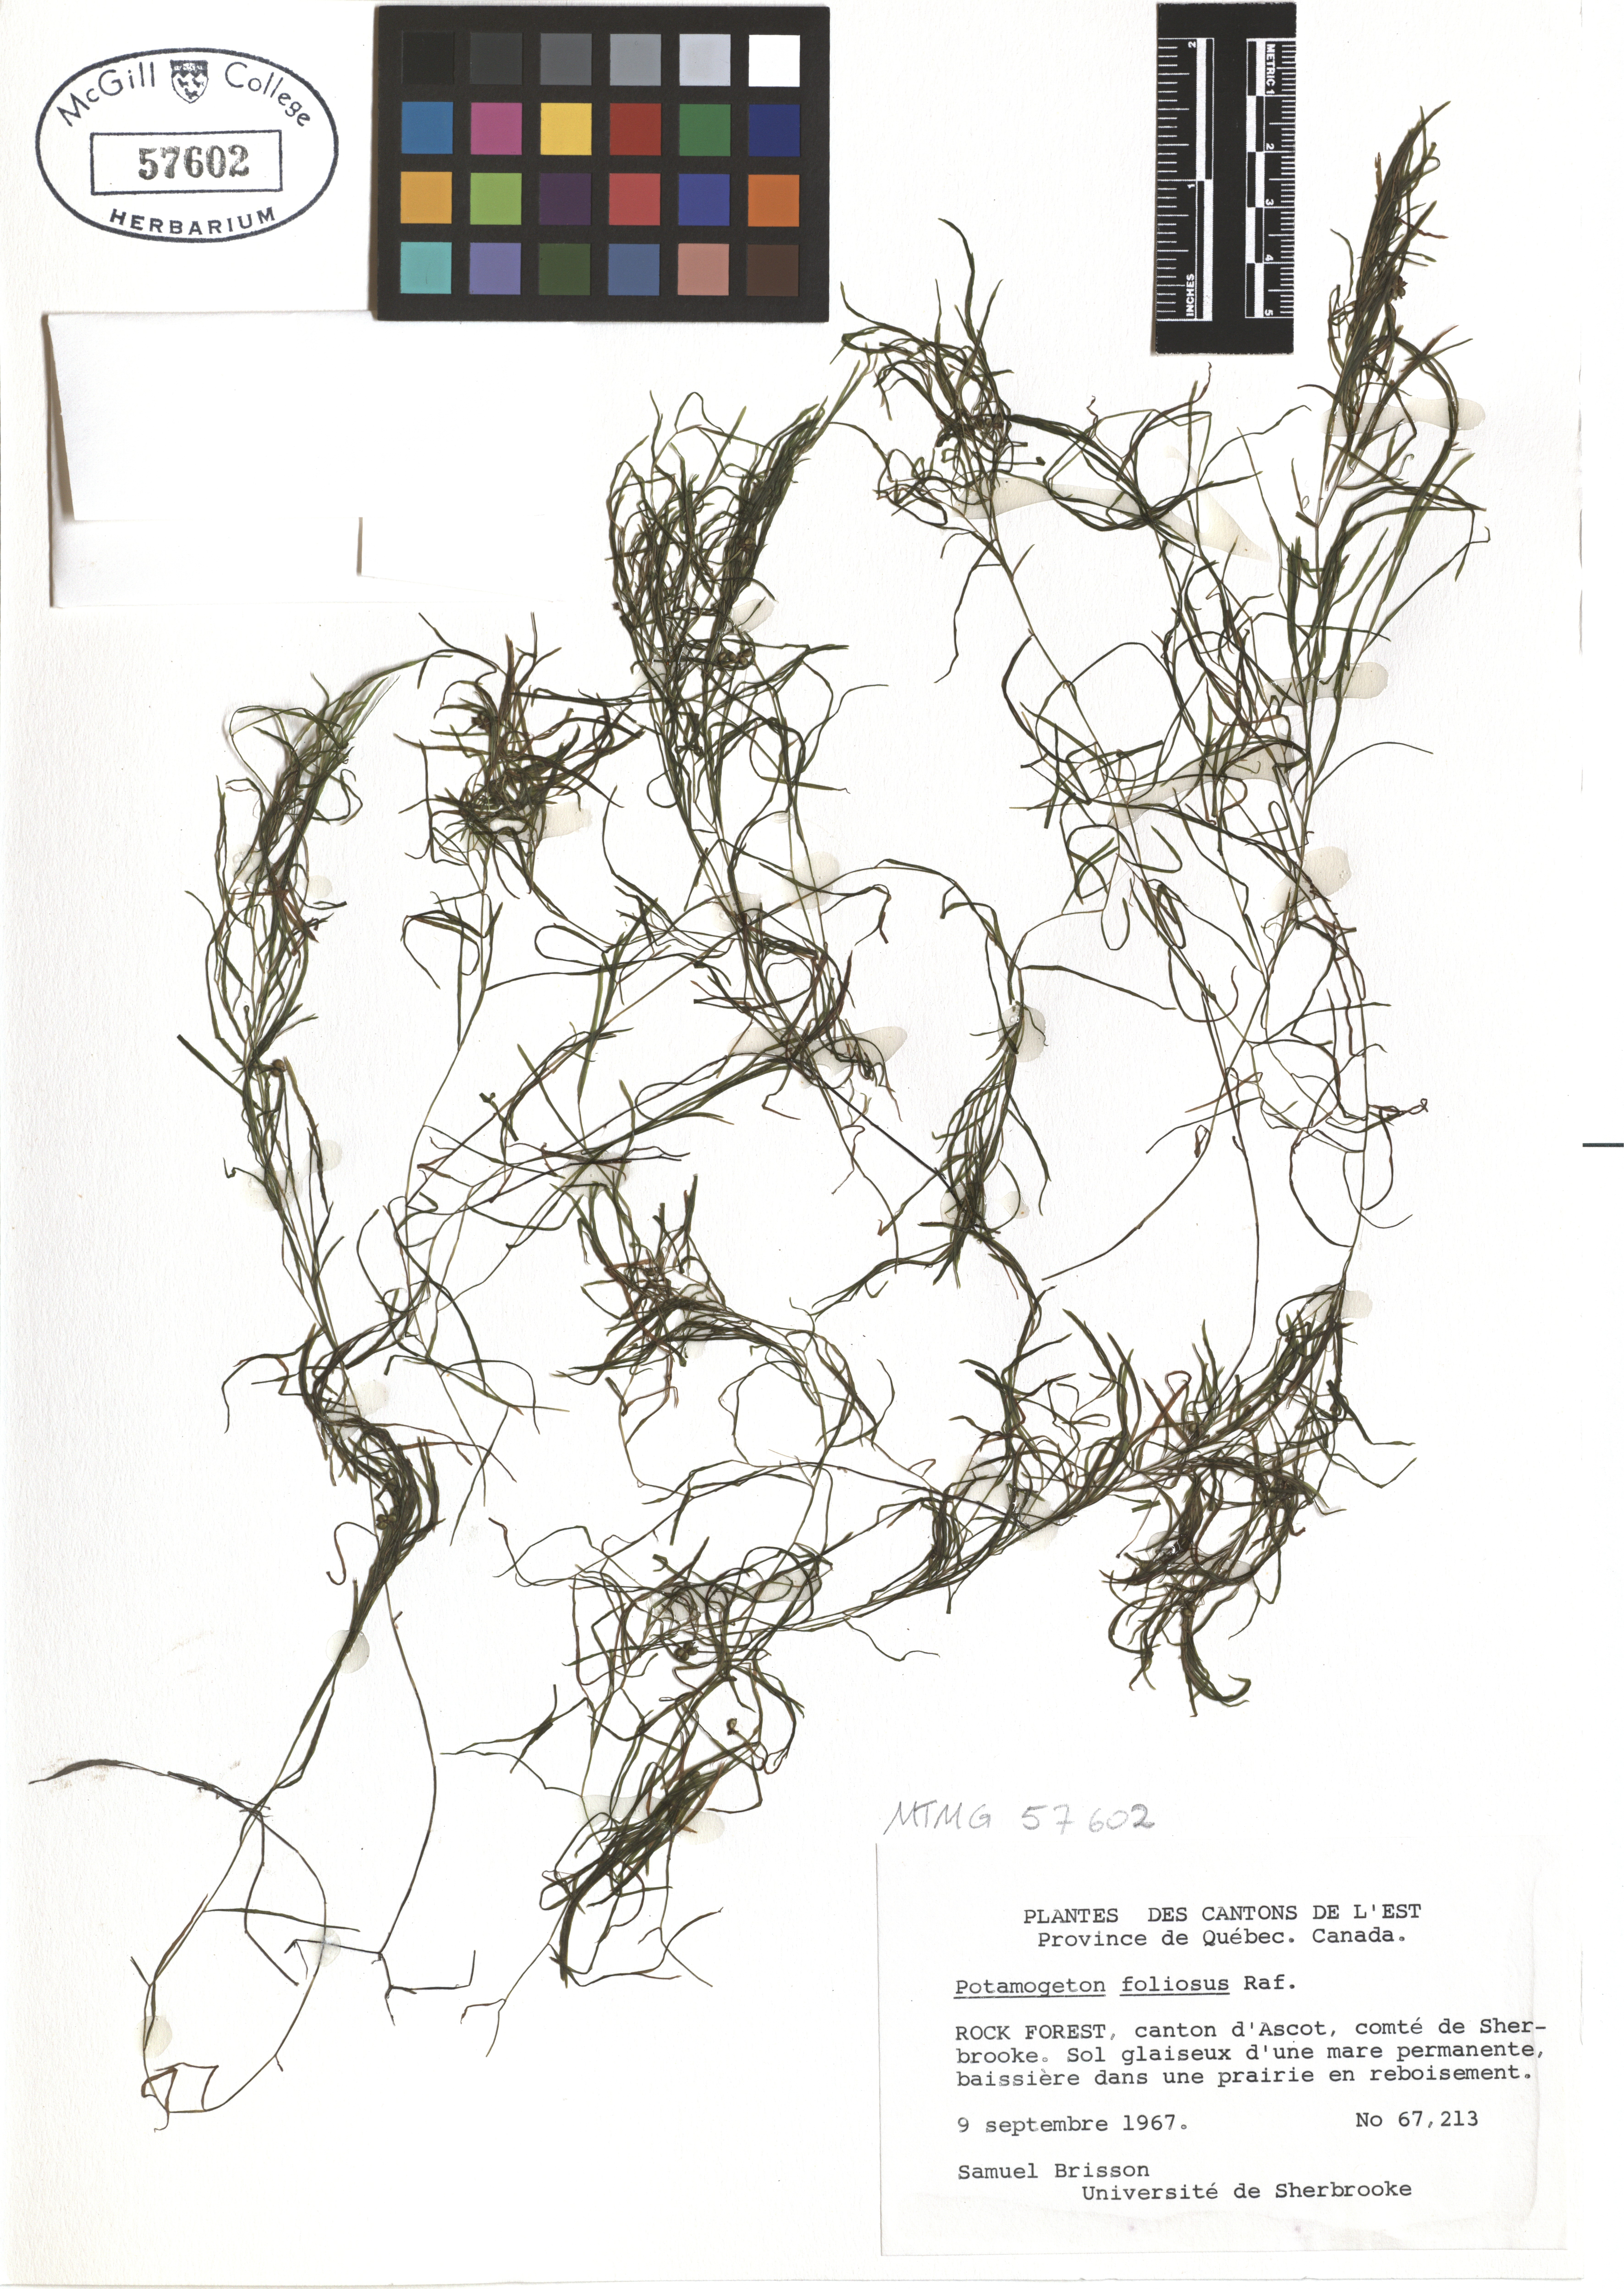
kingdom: Plantae
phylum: Tracheophyta
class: Liliopsida
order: Alismatales
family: Potamogetonaceae
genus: Potamogeton
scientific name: Potamogeton foliosus
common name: Leafy pondweed
